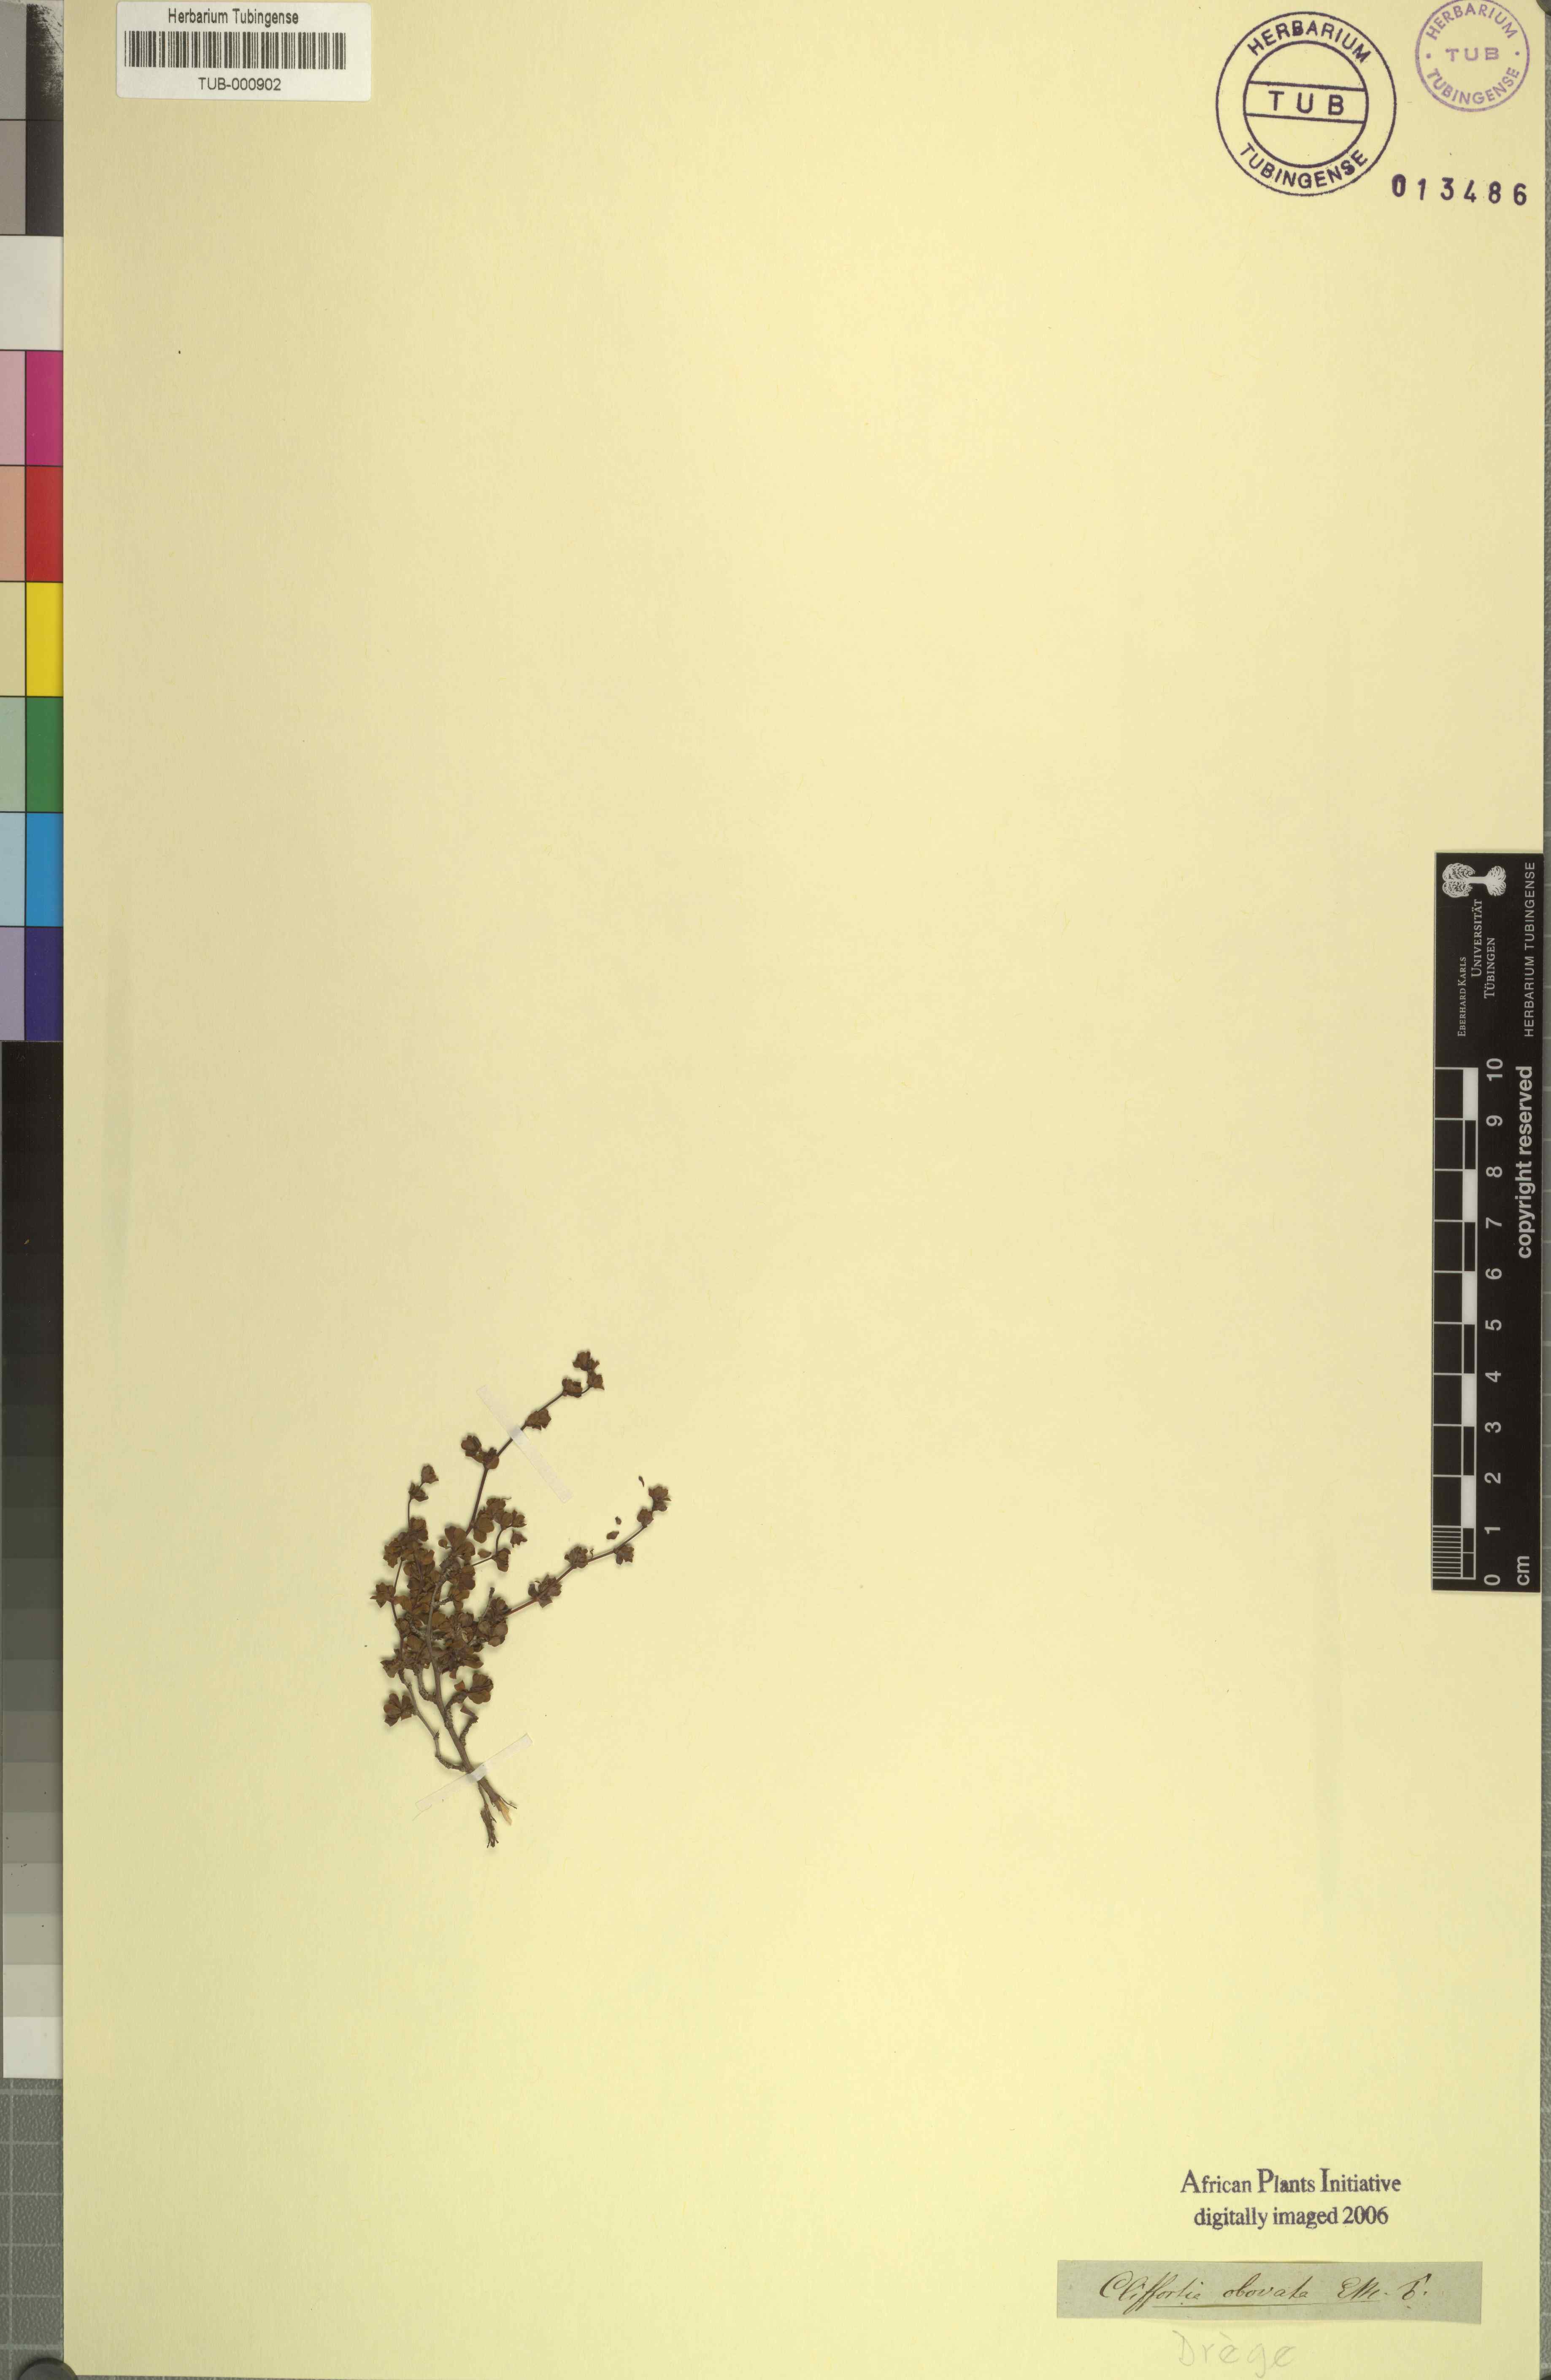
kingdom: Plantae
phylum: Tracheophyta
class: Magnoliopsida
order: Rosales
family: Rosaceae
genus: Cliffortia
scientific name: Cliffortia obovata
